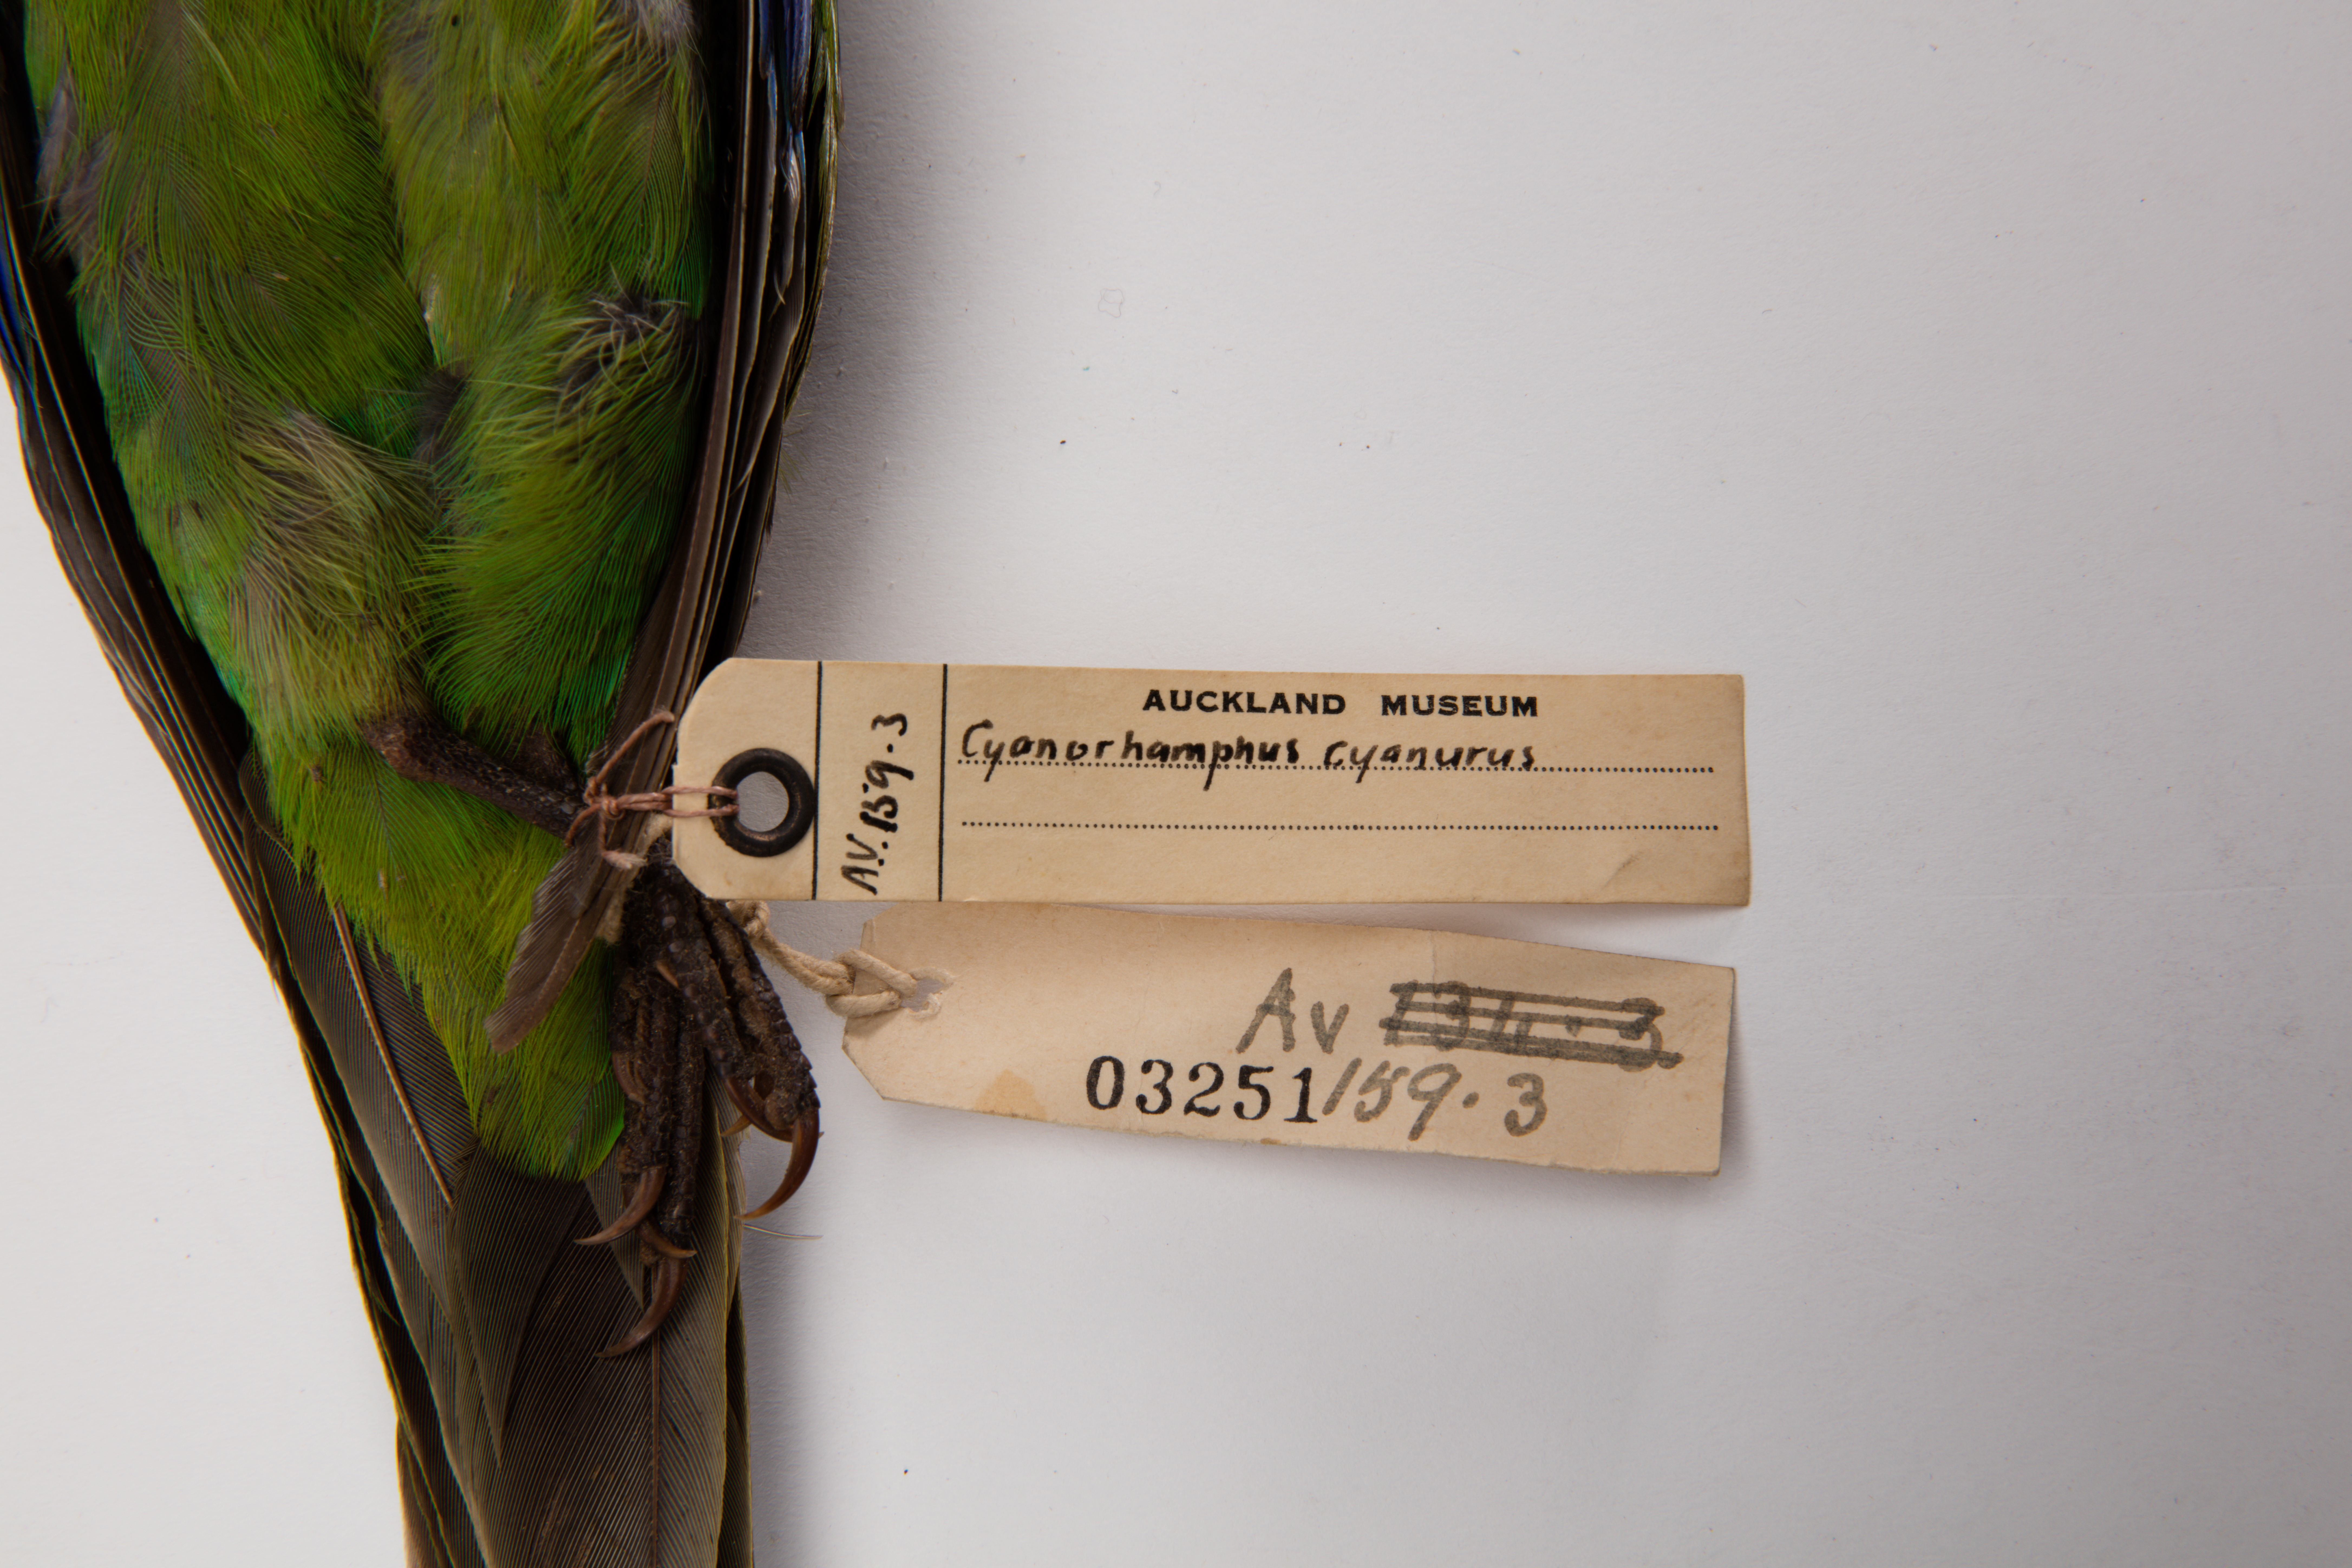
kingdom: Animalia
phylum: Chordata
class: Aves
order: Psittaciformes
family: Psittacidae
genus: Cyanoramphus
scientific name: Cyanoramphus novaezelandiae
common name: Red-fronted parakeet
